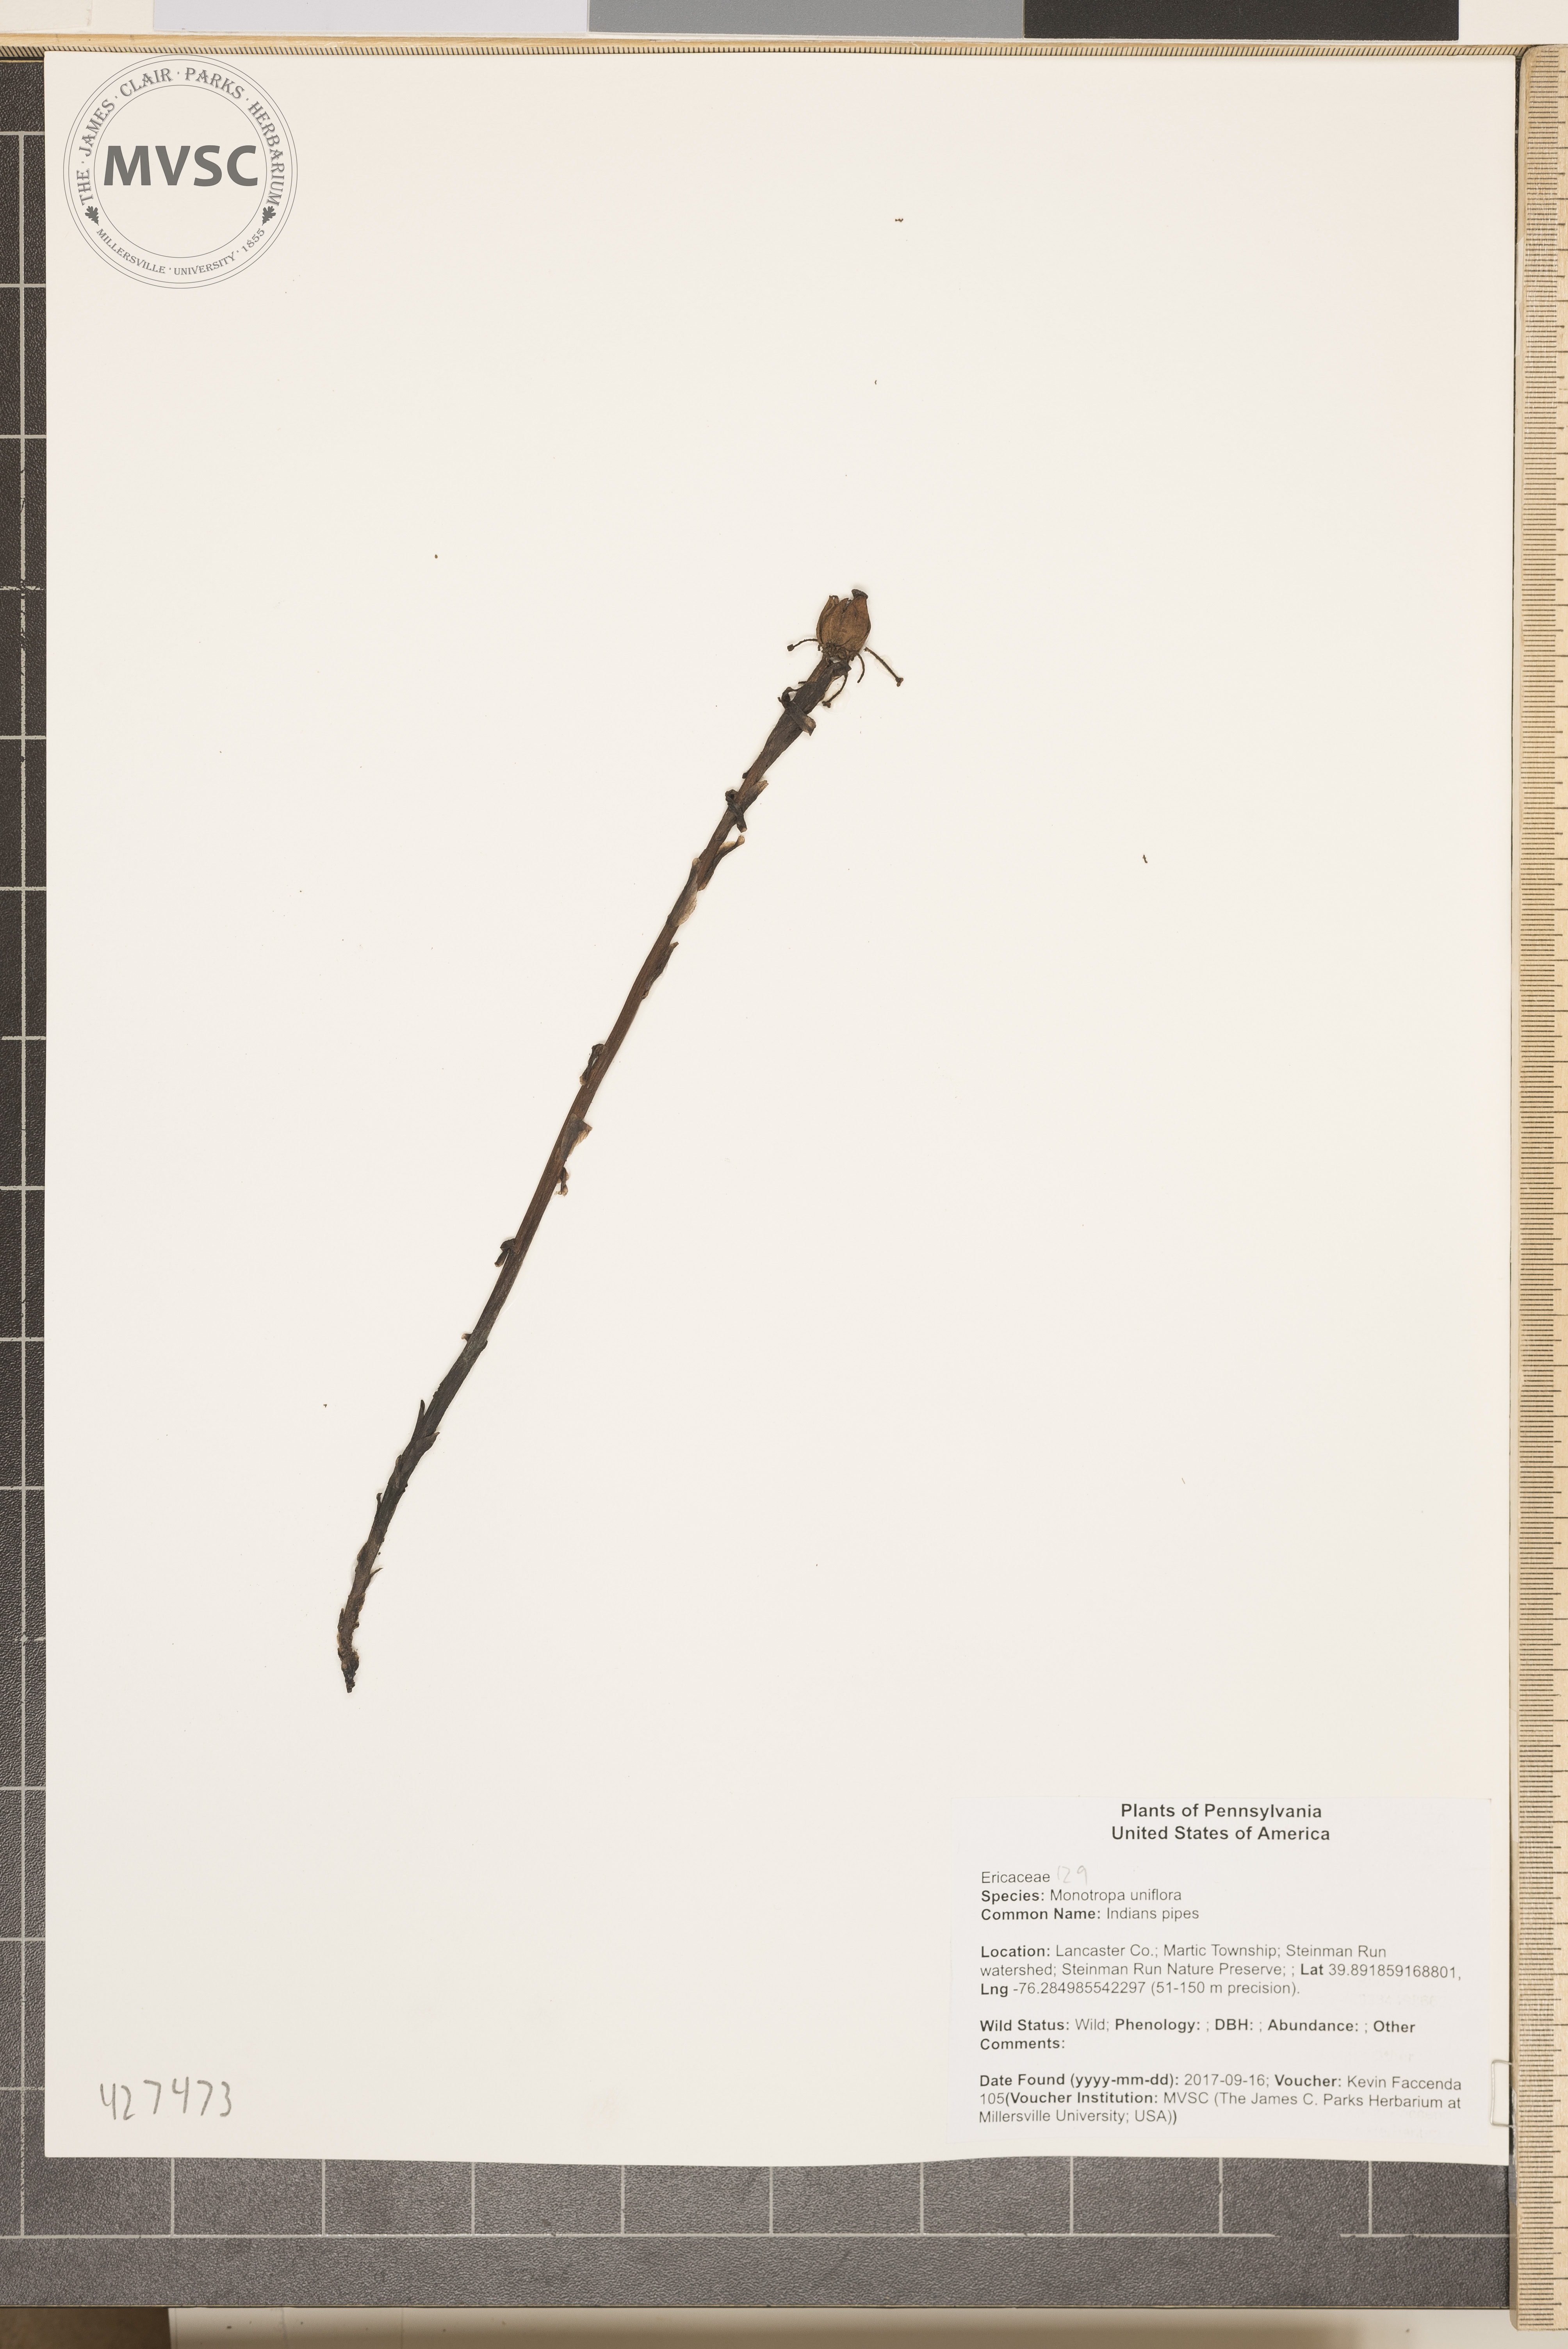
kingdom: Plantae
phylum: Tracheophyta
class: Magnoliopsida
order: Ericales
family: Ericaceae
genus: Monotropa
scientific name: Monotropa uniflora
